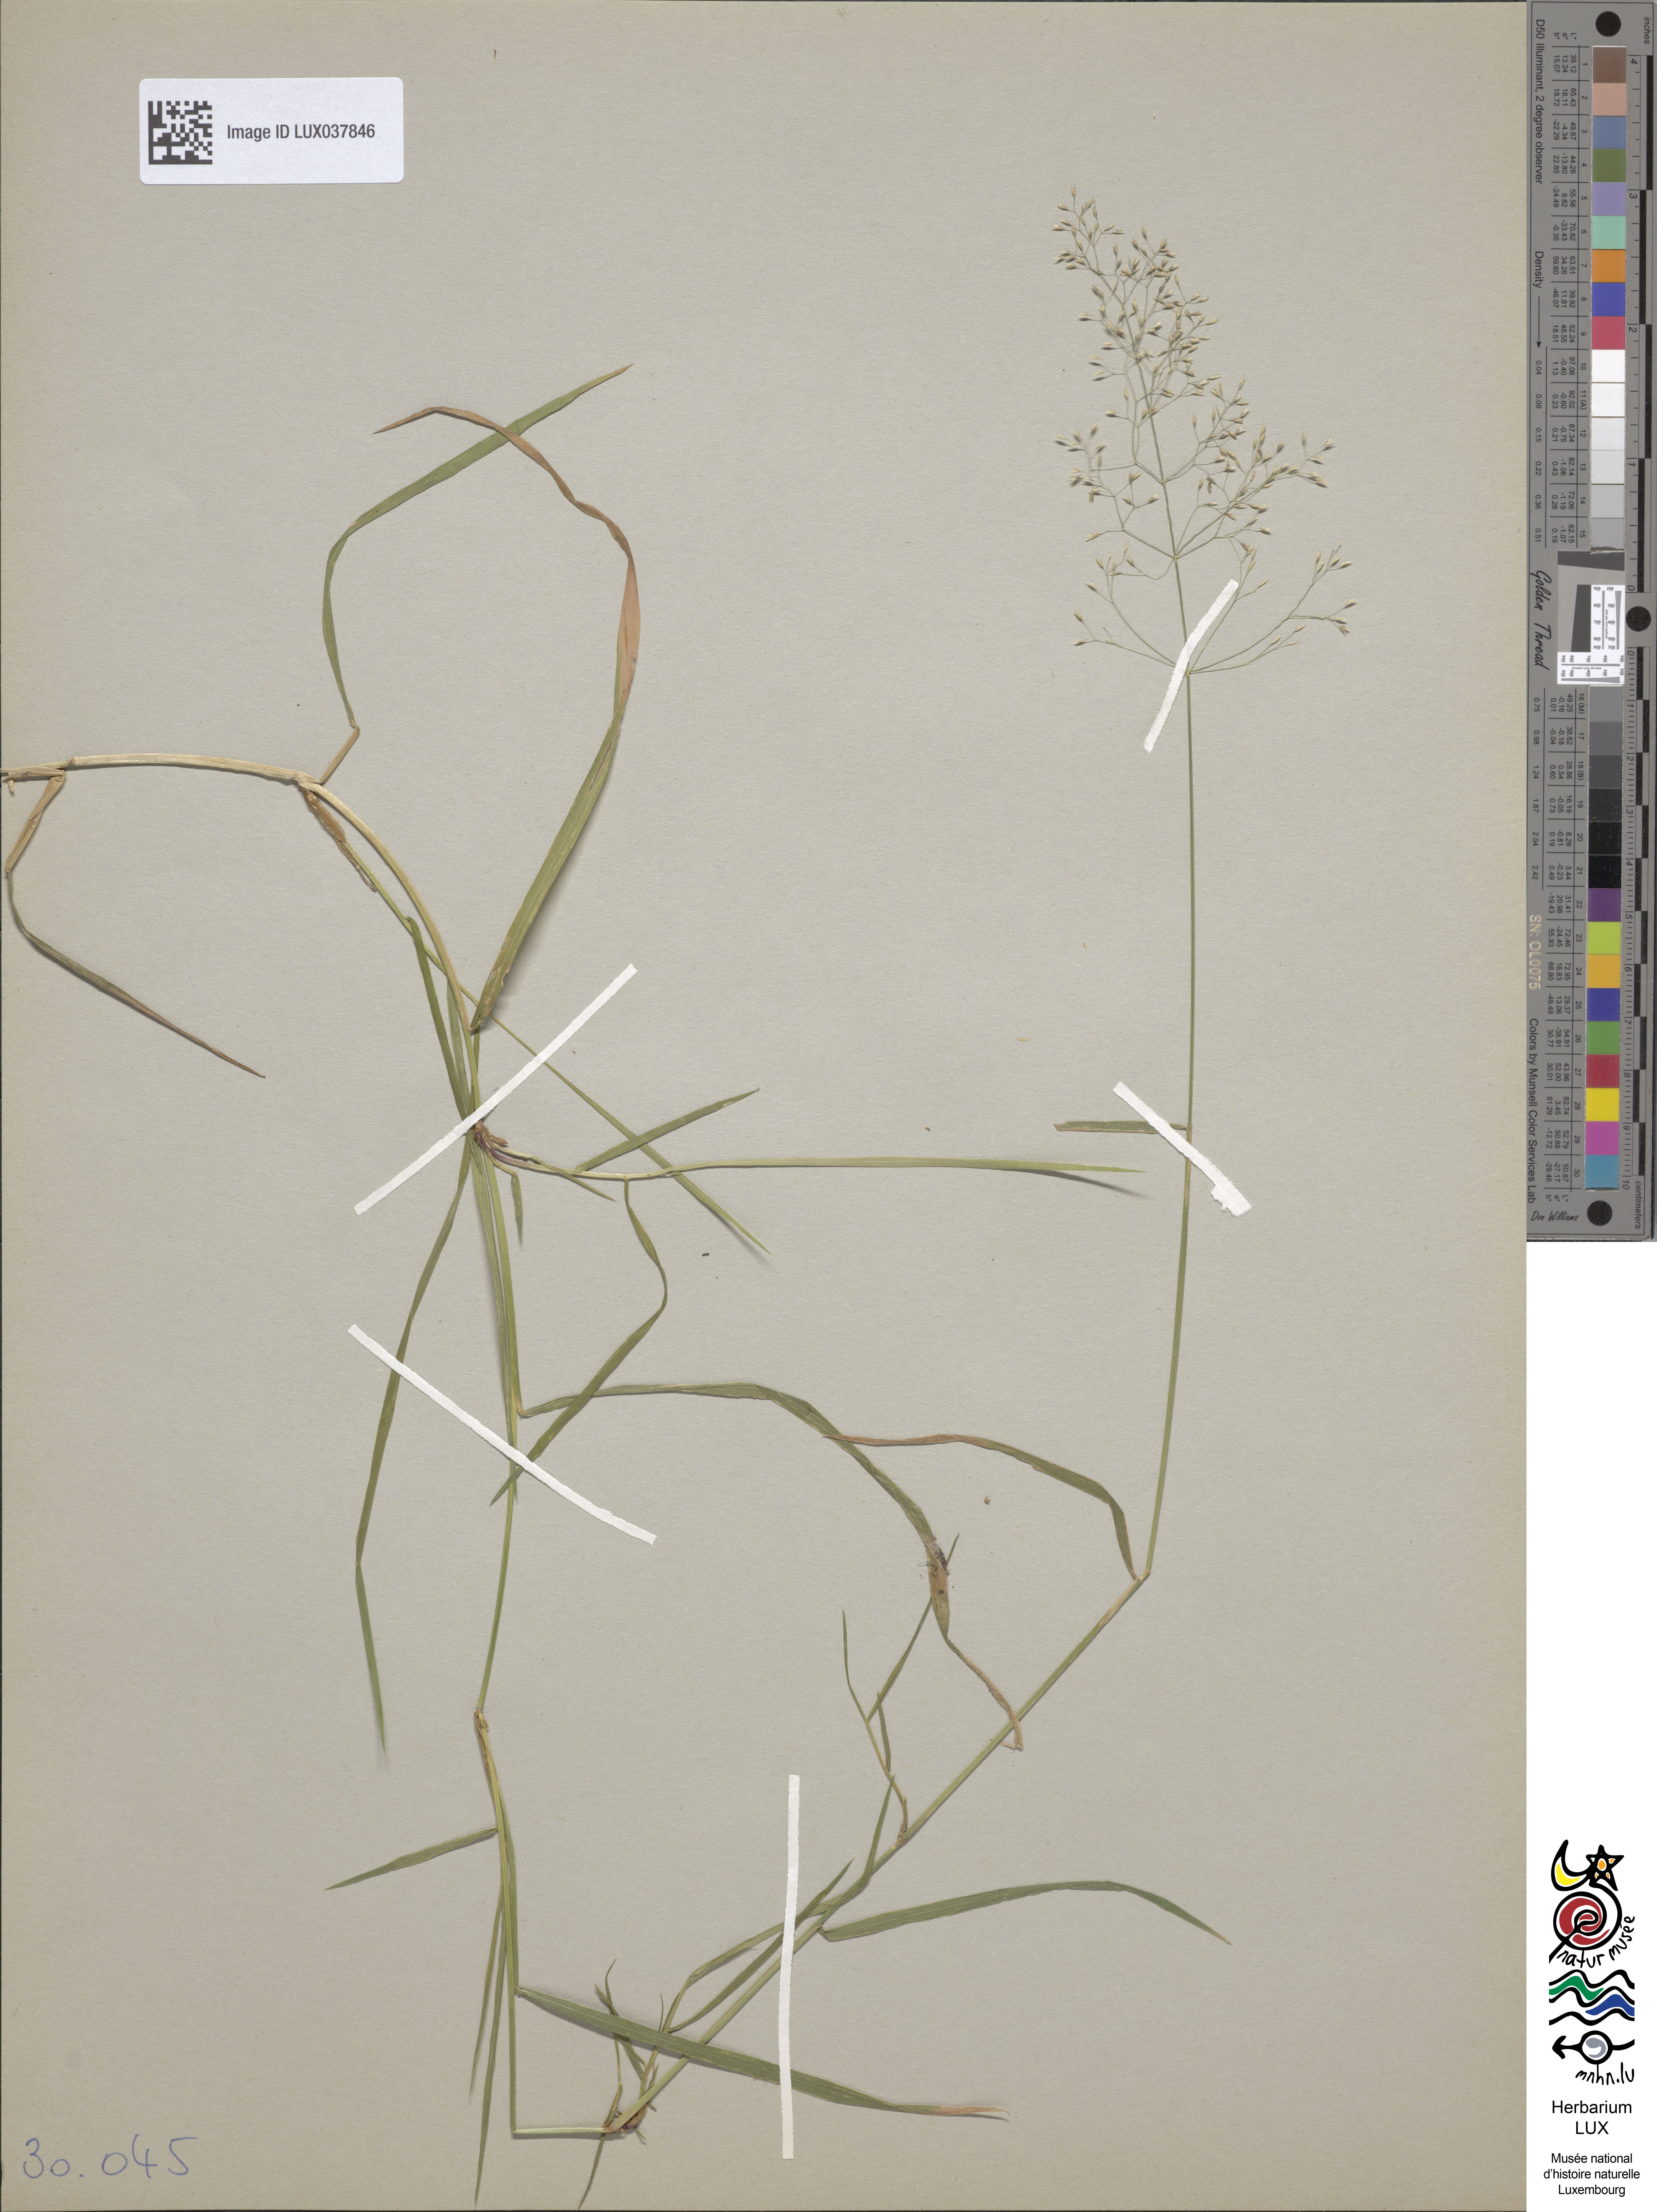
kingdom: Plantae
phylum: Tracheophyta
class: Liliopsida
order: Poales
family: Poaceae
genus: Agrostis
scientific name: Agrostis capillaris
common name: Colonial bentgrass
